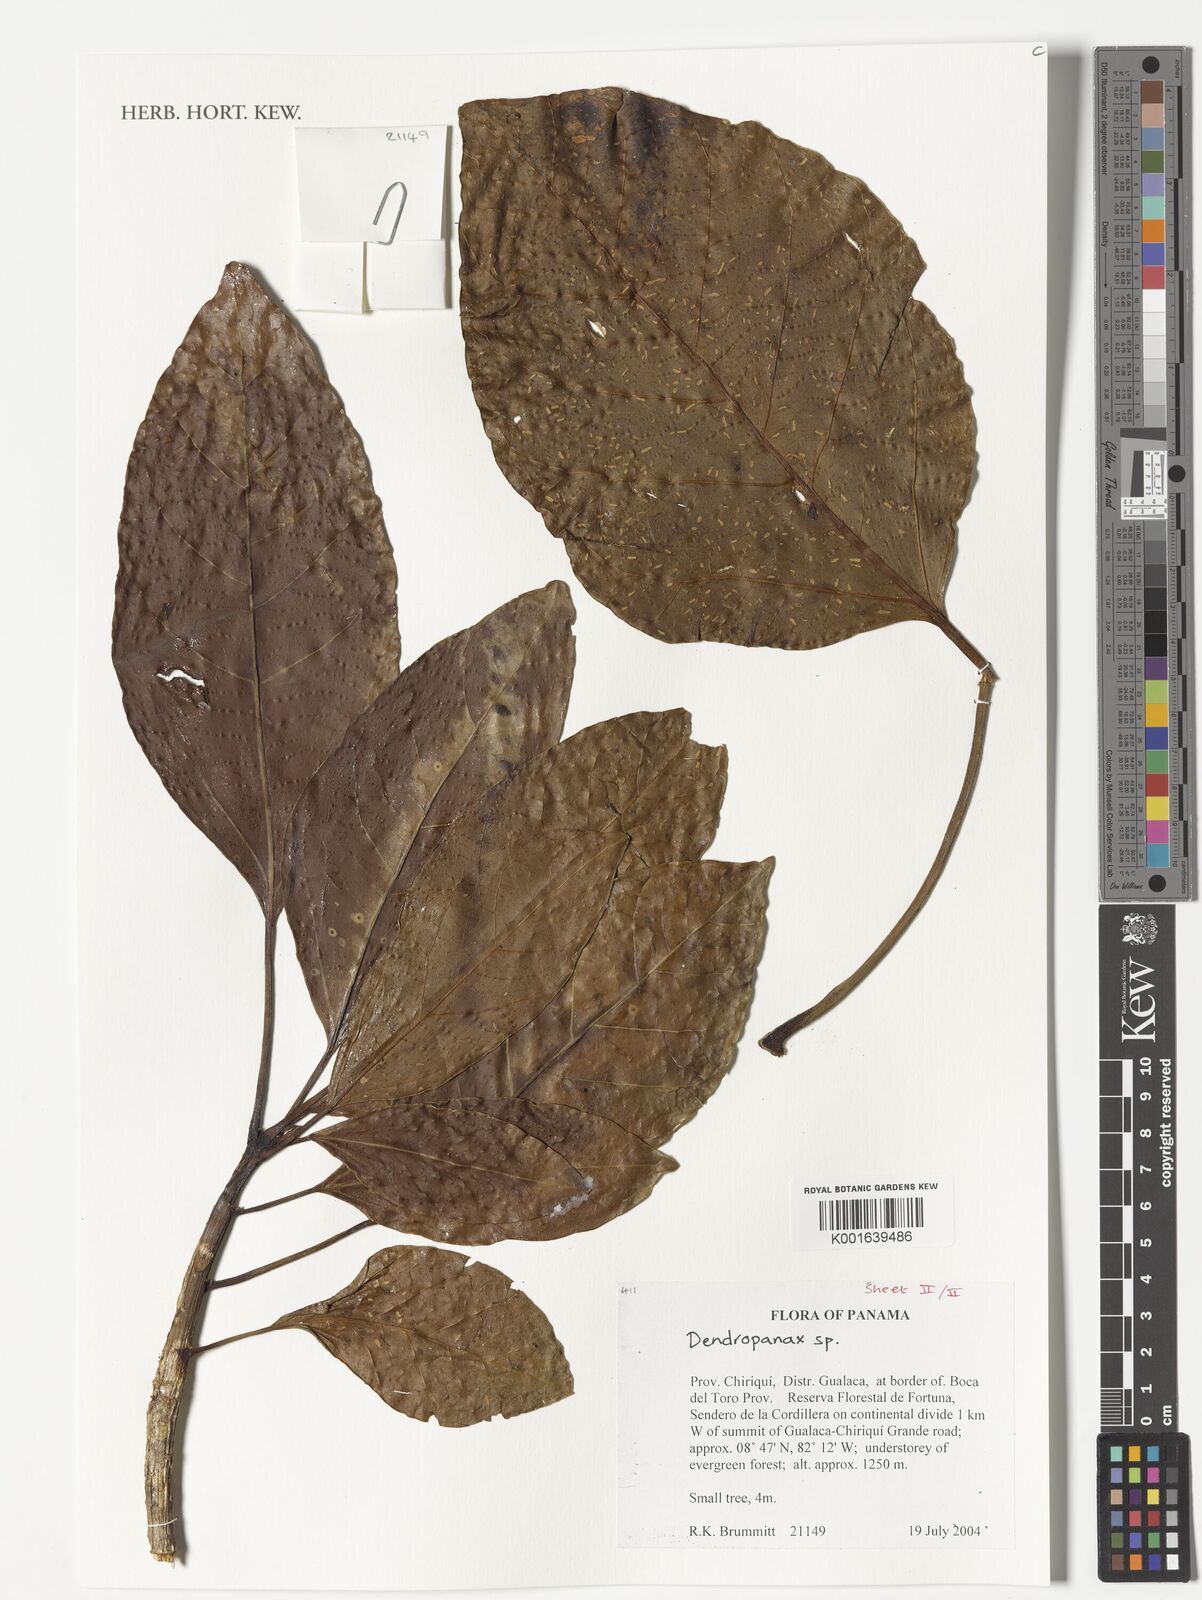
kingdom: Plantae
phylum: Tracheophyta
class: Magnoliopsida
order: Apiales
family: Araliaceae
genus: Dendropanax
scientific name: Dendropanax
